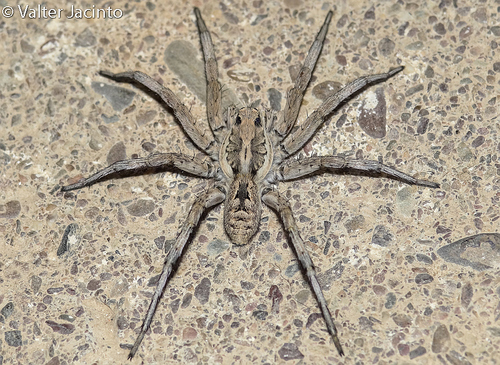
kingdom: Animalia
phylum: Arthropoda
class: Arachnida
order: Araneae
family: Lycosidae
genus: Lycosa
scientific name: Lycosa hispanica
